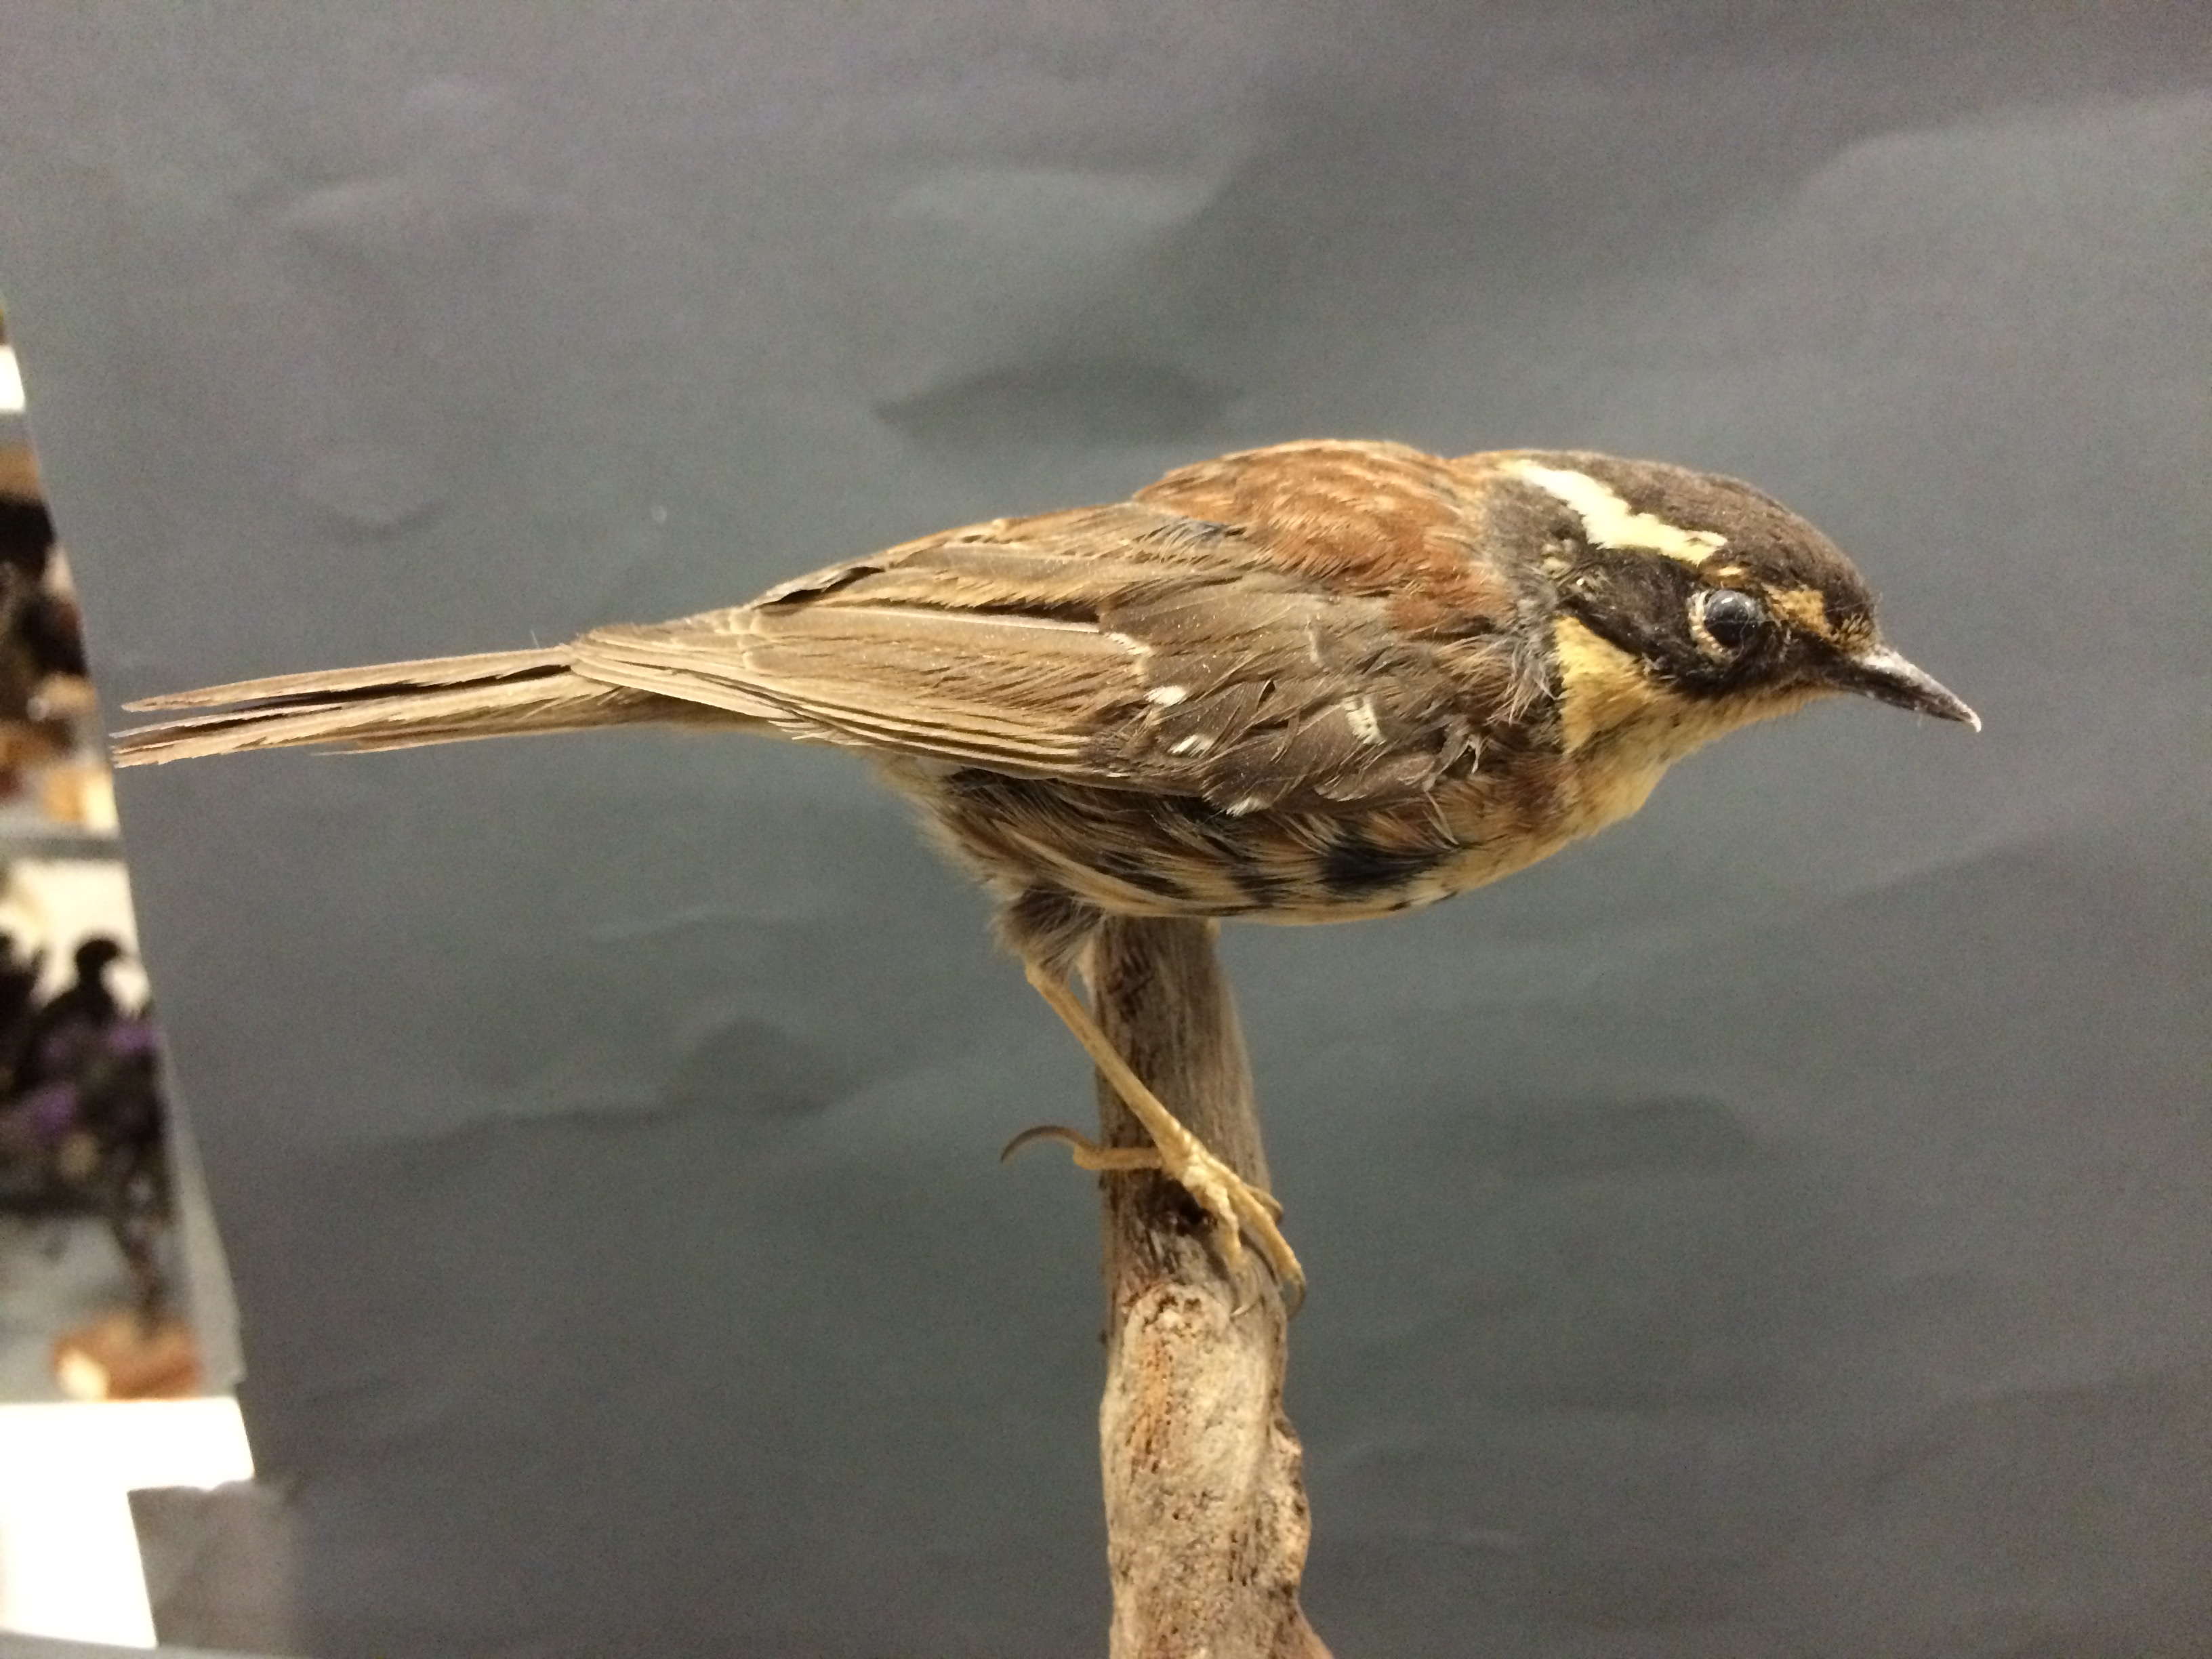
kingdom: Animalia
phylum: Chordata
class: Aves
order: Passeriformes
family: Prunellidae
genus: Prunella
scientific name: Prunella montanella
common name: Siberian accentor
